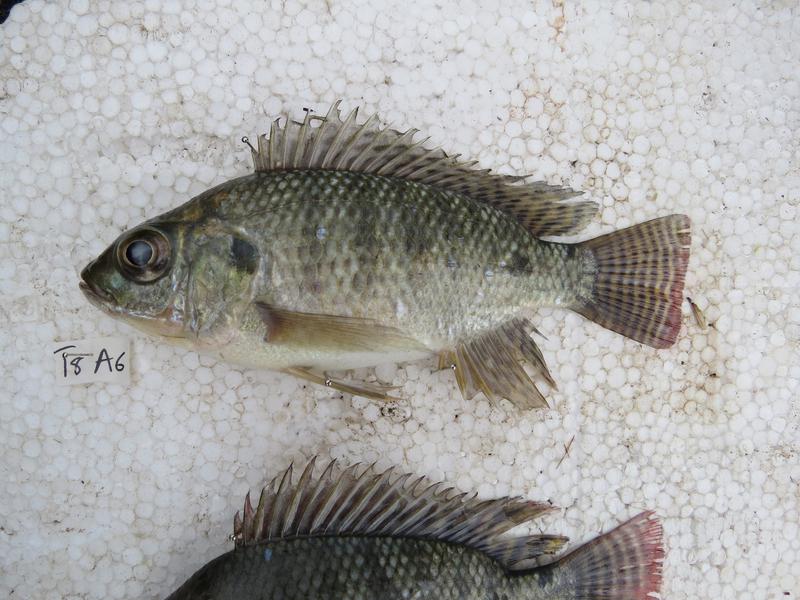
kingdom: Animalia
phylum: Chordata
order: Perciformes
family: Cichlidae
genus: Oreochromis
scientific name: Oreochromis niloticus
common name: Nile tilapia
